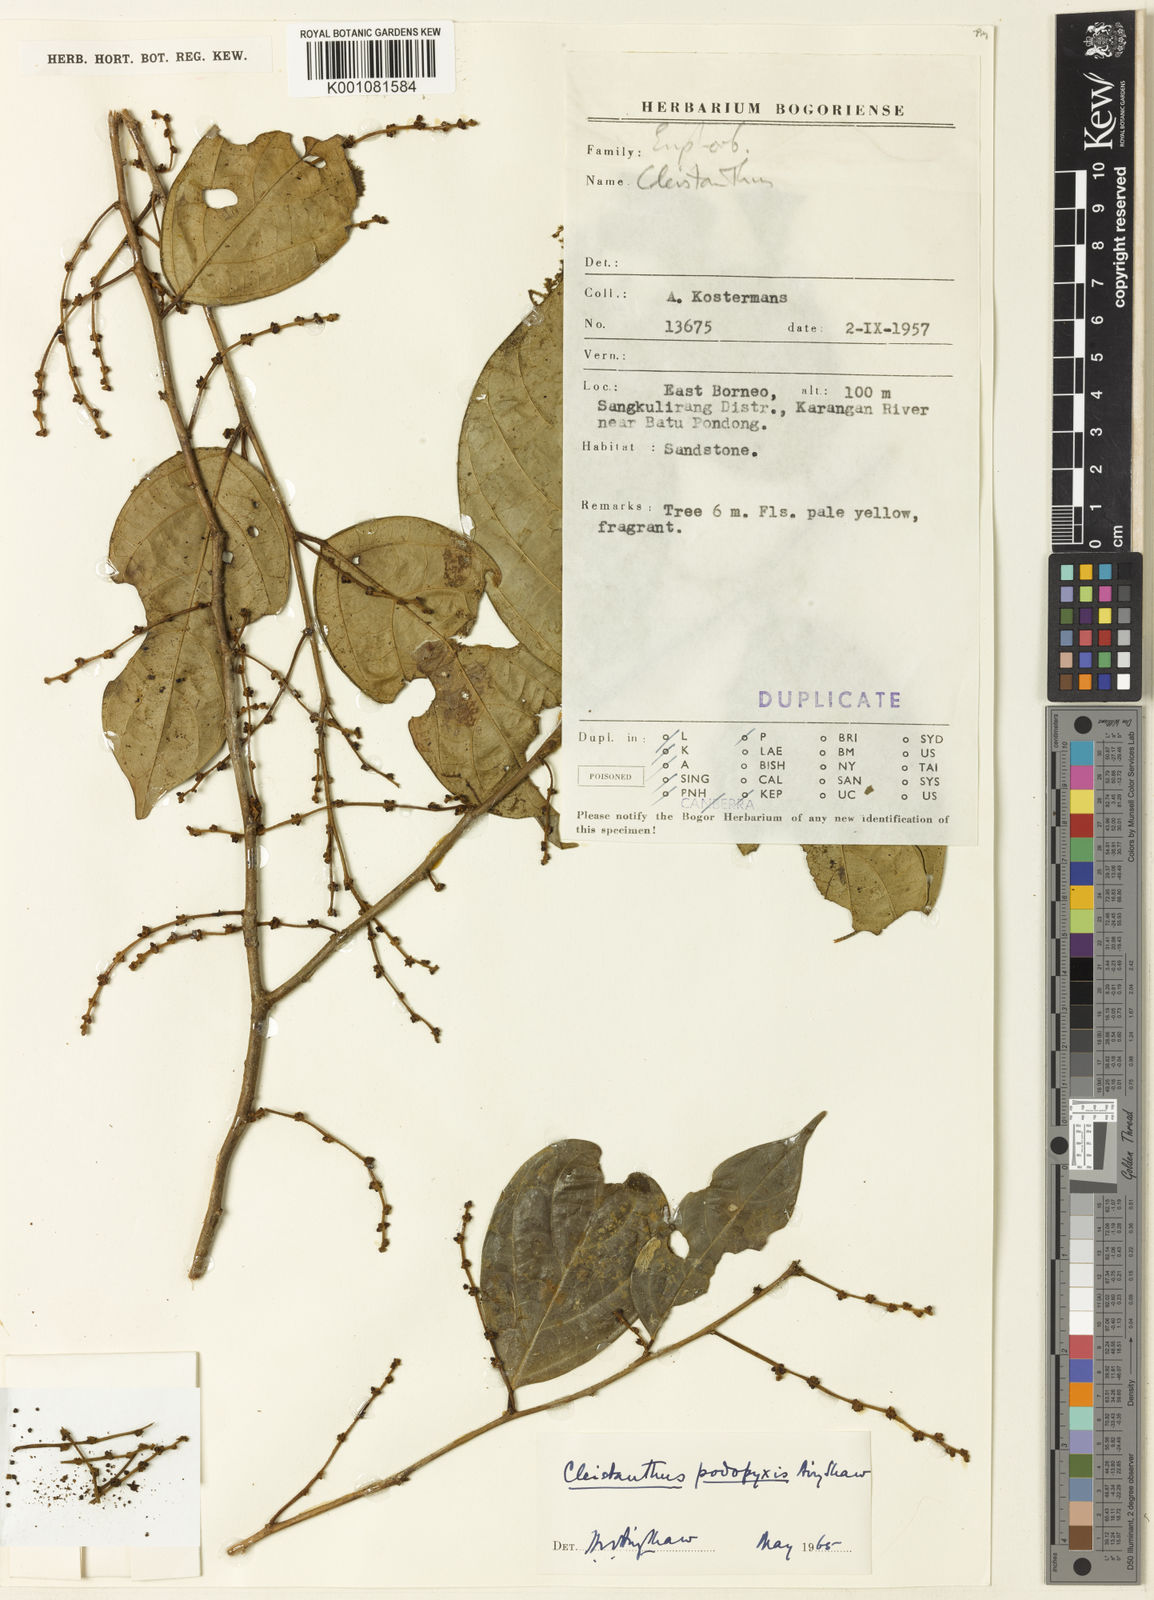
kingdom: Plantae
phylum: Tracheophyta
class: Magnoliopsida
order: Malpighiales
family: Phyllanthaceae
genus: Cleistanthus
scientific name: Cleistanthus podopyxis
